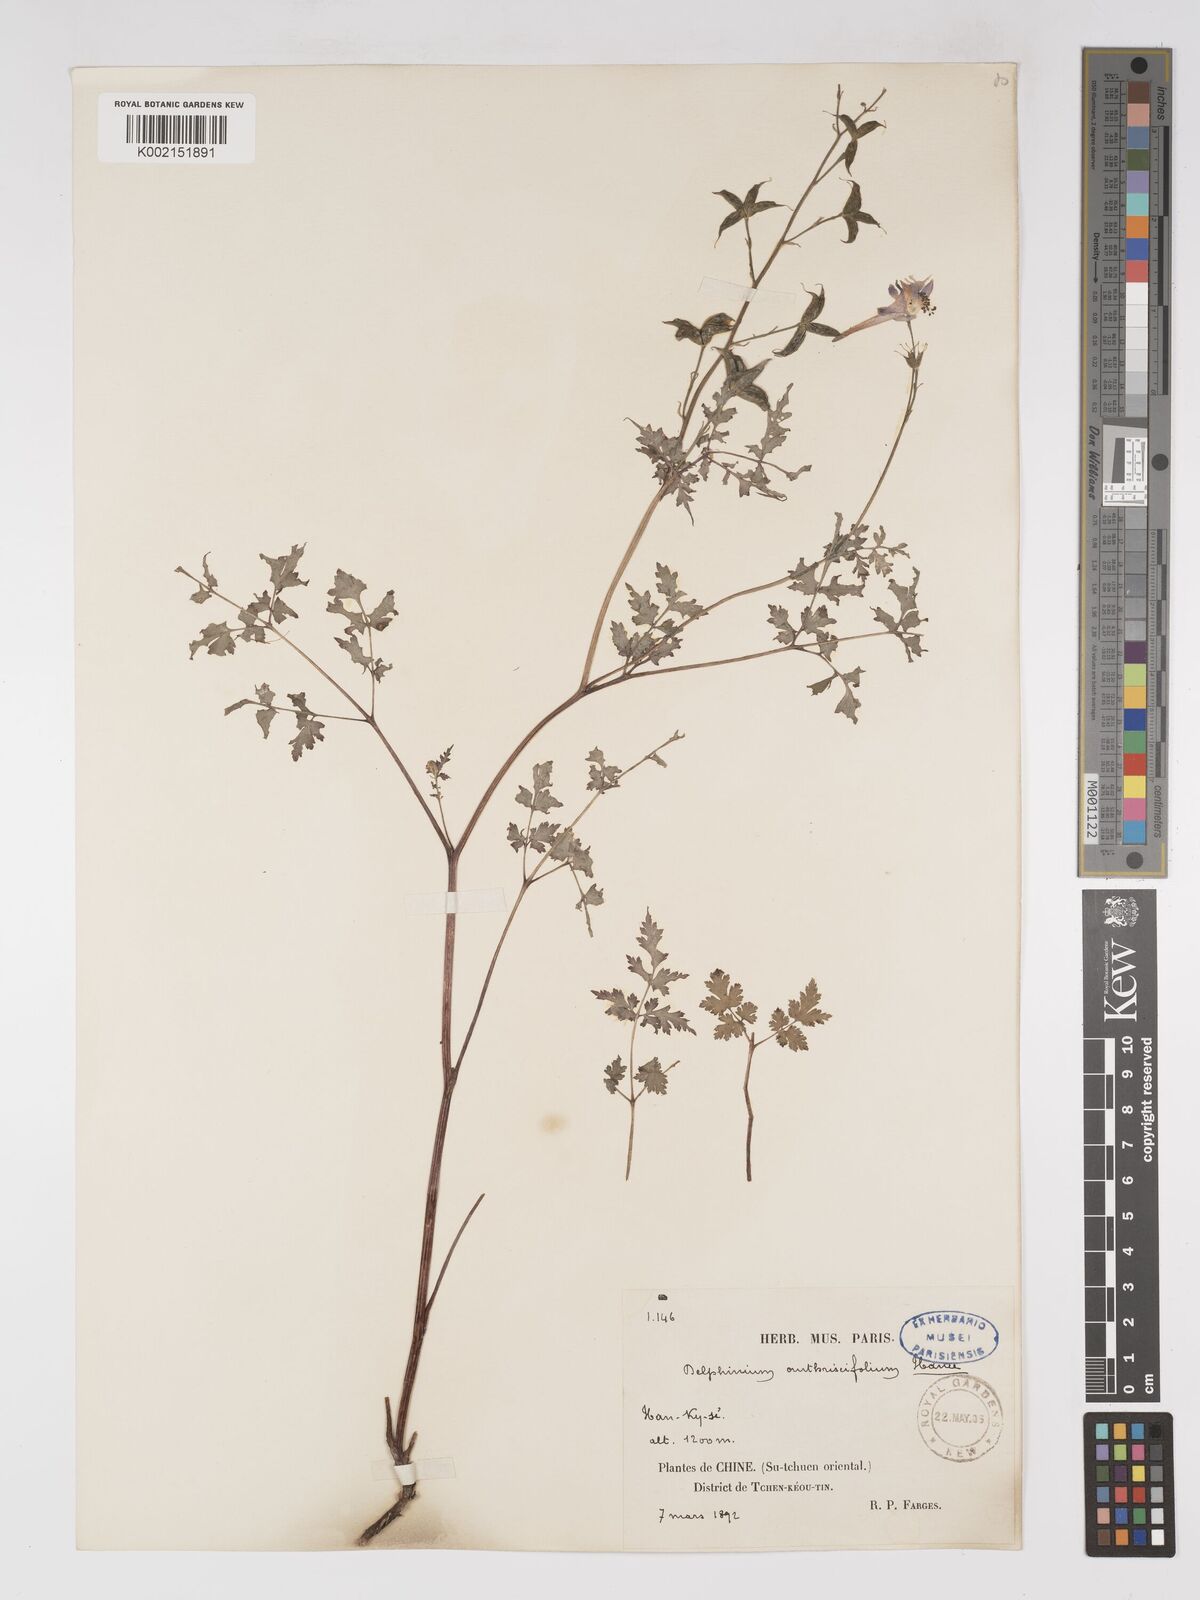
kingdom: Plantae
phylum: Tracheophyta
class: Magnoliopsida
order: Ranunculales
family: Ranunculaceae
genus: Delphinium
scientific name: Delphinium anthriscifolium
